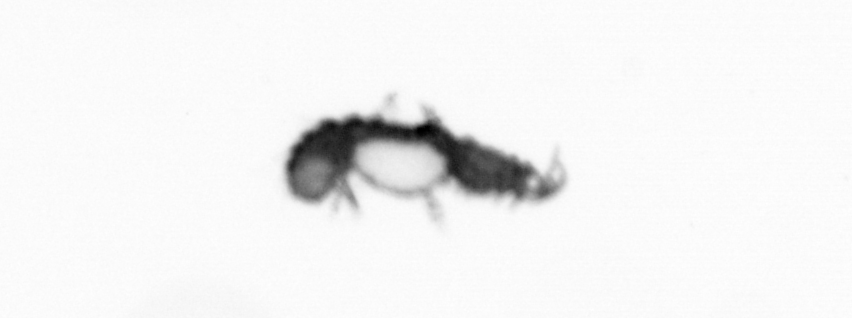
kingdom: Animalia
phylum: Annelida
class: Polychaeta
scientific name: Polychaeta
